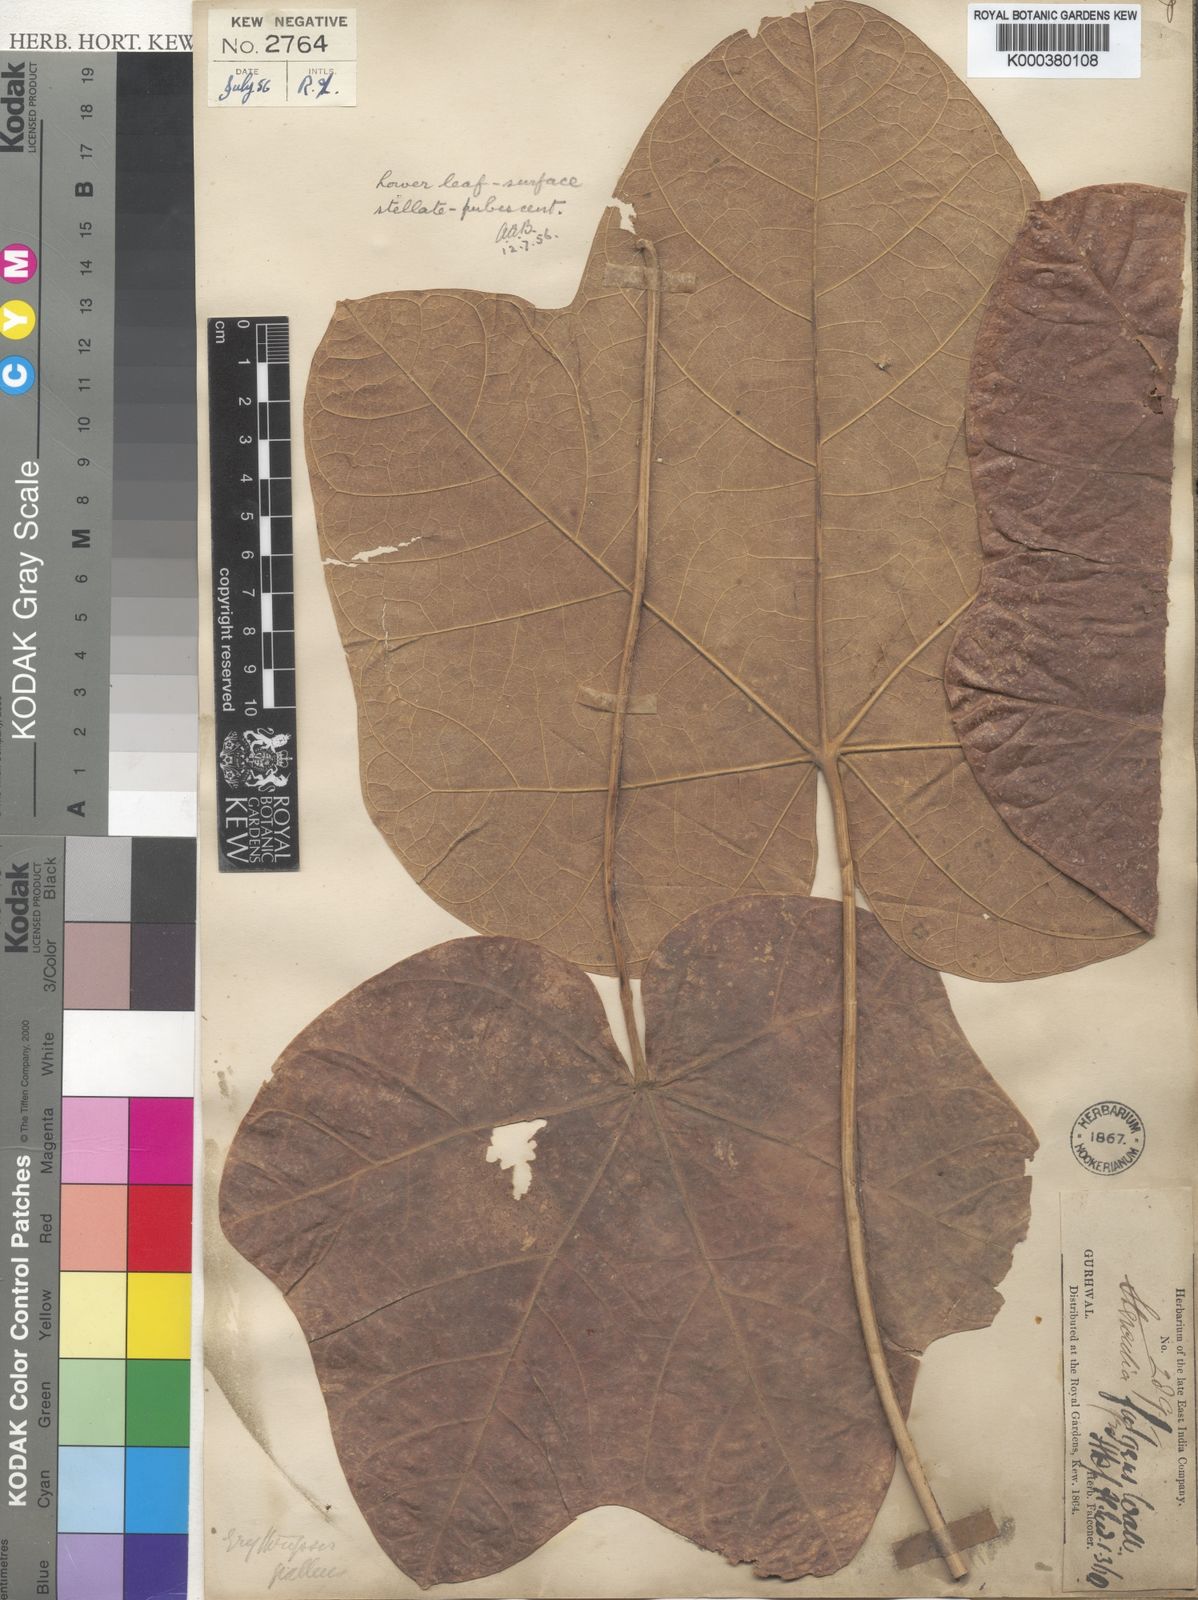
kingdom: Plantae
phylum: Tracheophyta
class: Magnoliopsida
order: Malvales
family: Malvaceae
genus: Firmiana
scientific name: Firmiana fulgens
